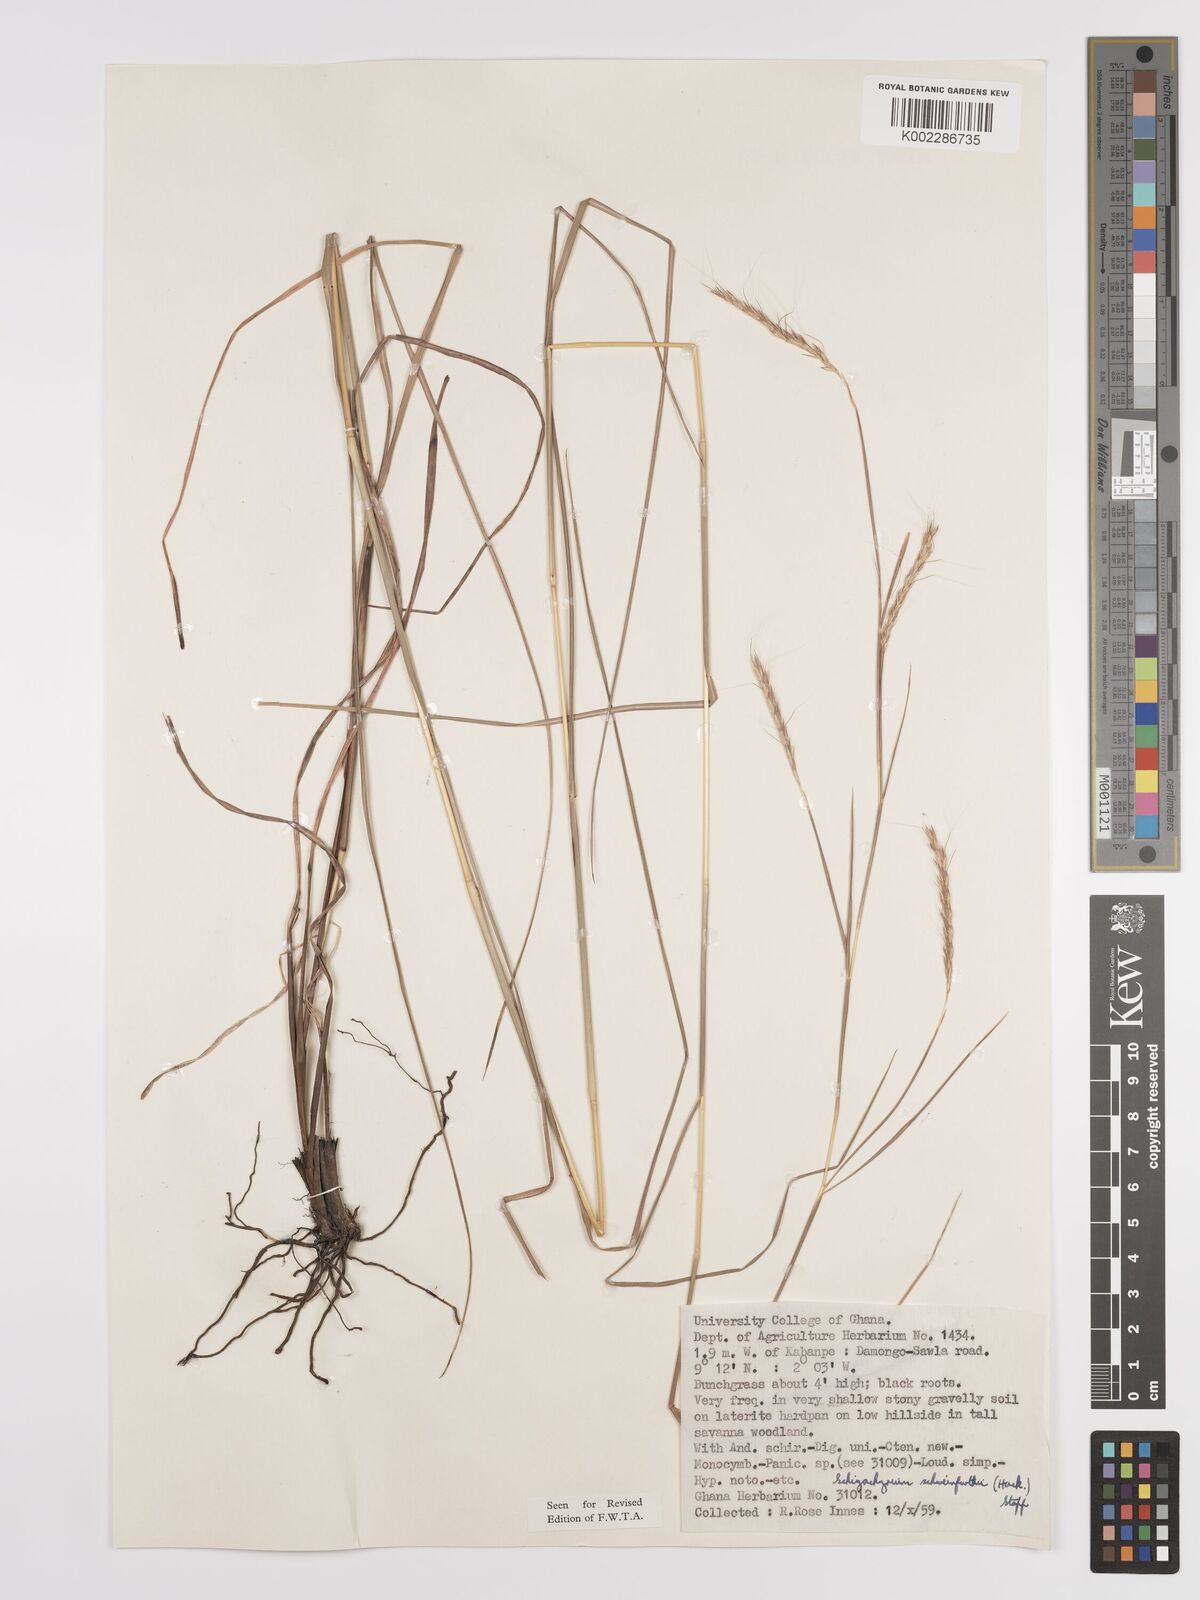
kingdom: Plantae
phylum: Tracheophyta
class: Liliopsida
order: Poales
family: Poaceae
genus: Andropogon
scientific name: Andropogon schweinfurthii
